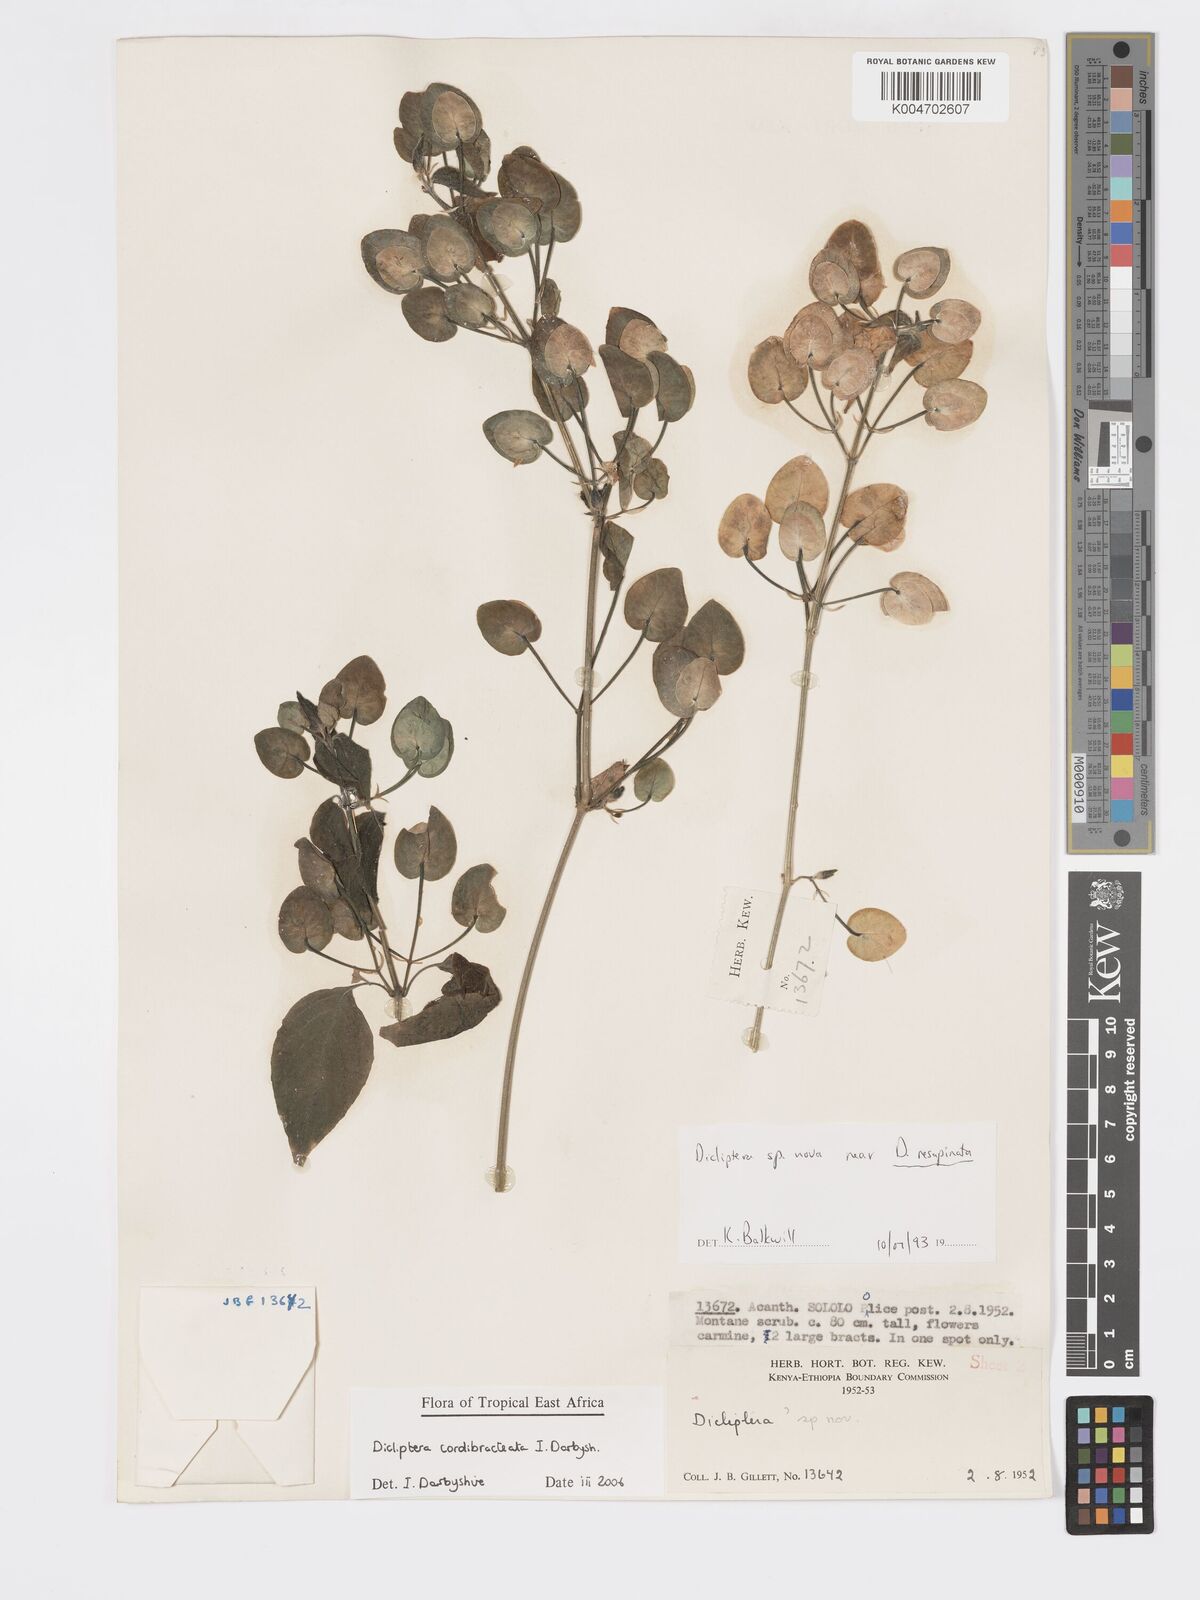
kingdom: Plantae
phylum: Tracheophyta
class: Magnoliopsida
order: Lamiales
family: Acanthaceae
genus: Dicliptera
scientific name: Dicliptera cordibracteata
